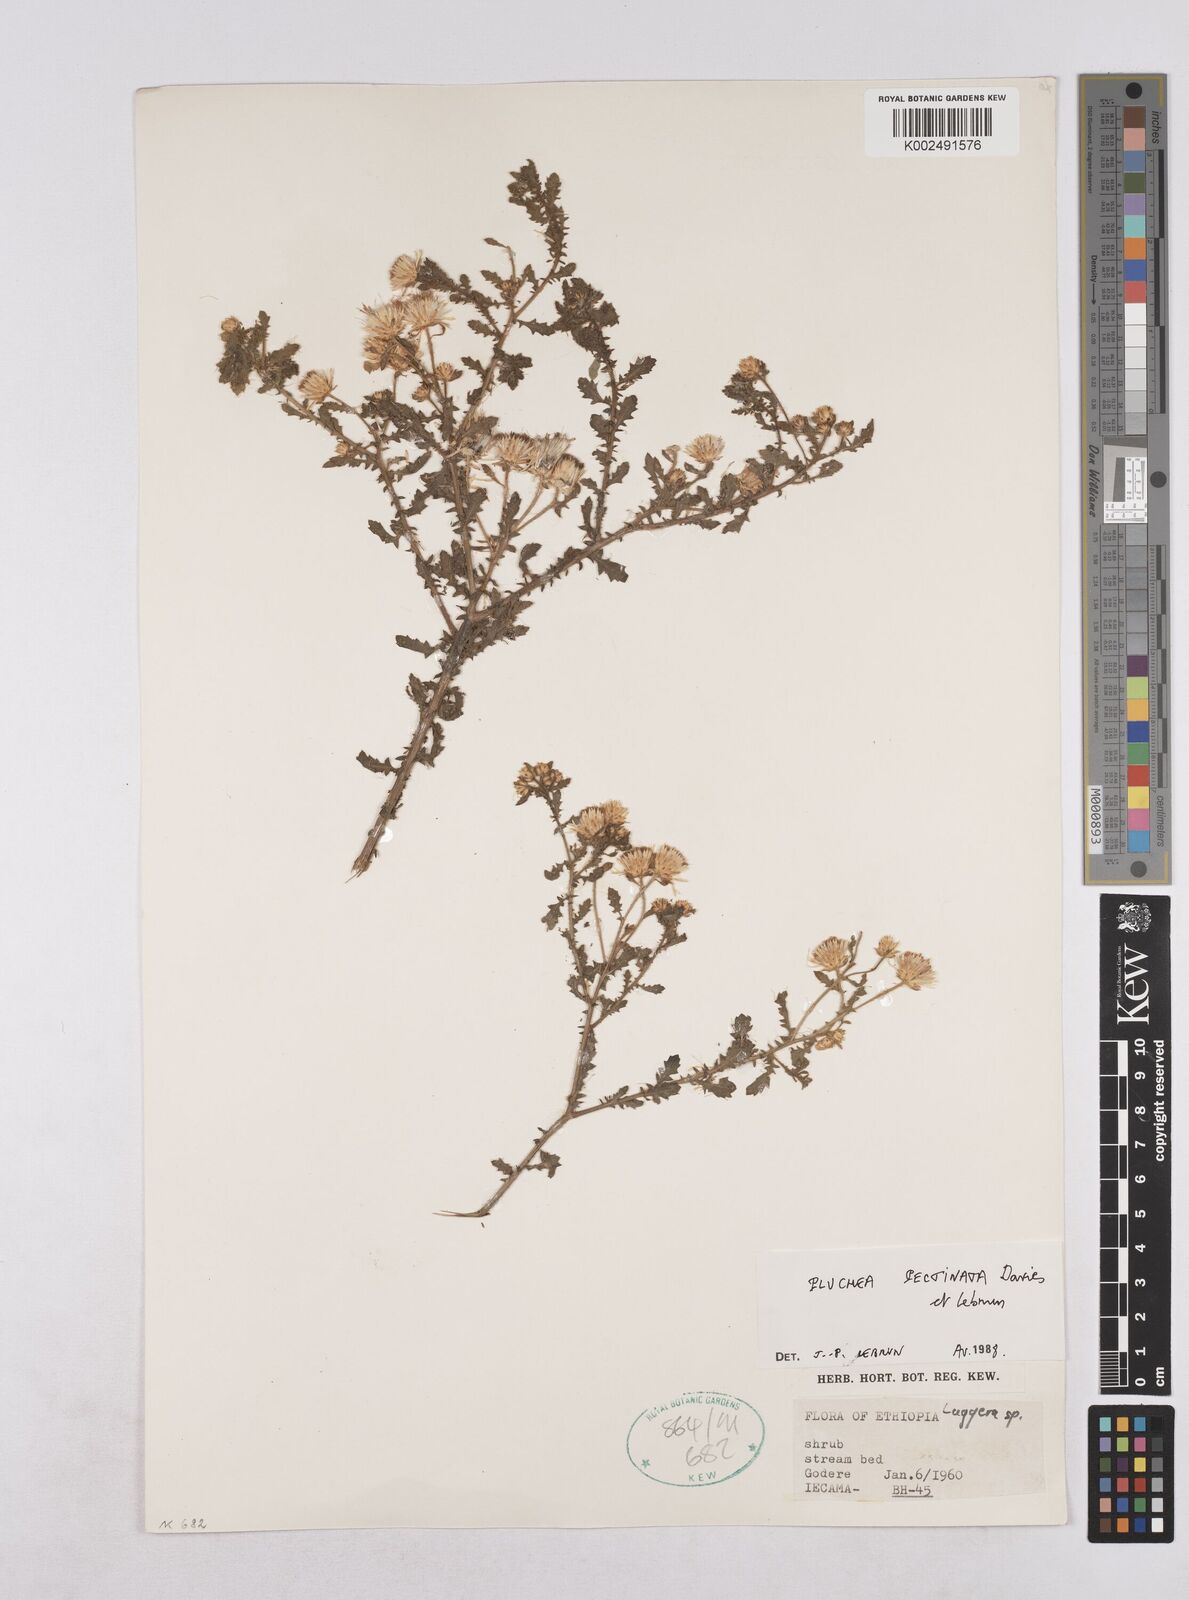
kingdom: Plantae
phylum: Tracheophyta
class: Magnoliopsida
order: Asterales
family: Asteraceae
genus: Pluchea
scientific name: Pluchea somaliensis
